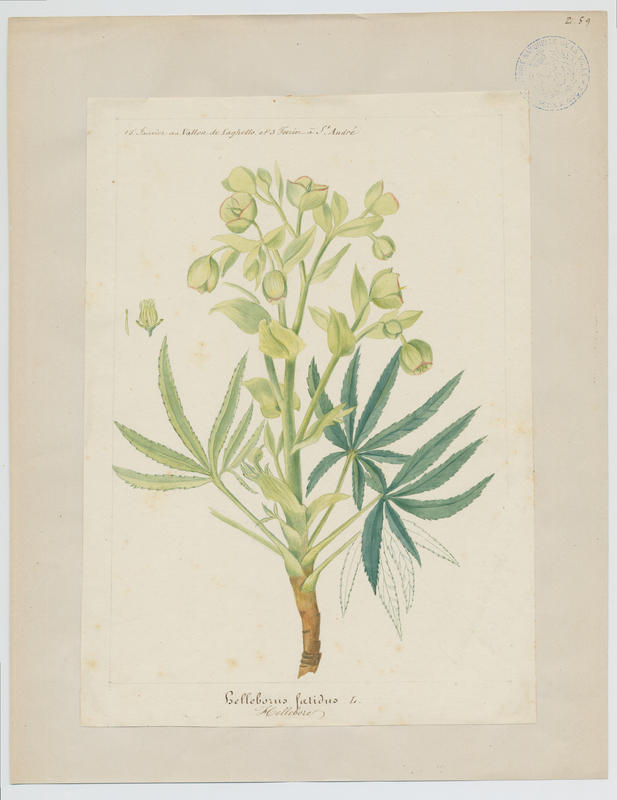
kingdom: Plantae
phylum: Tracheophyta
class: Magnoliopsida
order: Ranunculales
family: Ranunculaceae
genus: Helleborus
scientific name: Helleborus foetidus
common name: Stinking hellebore
